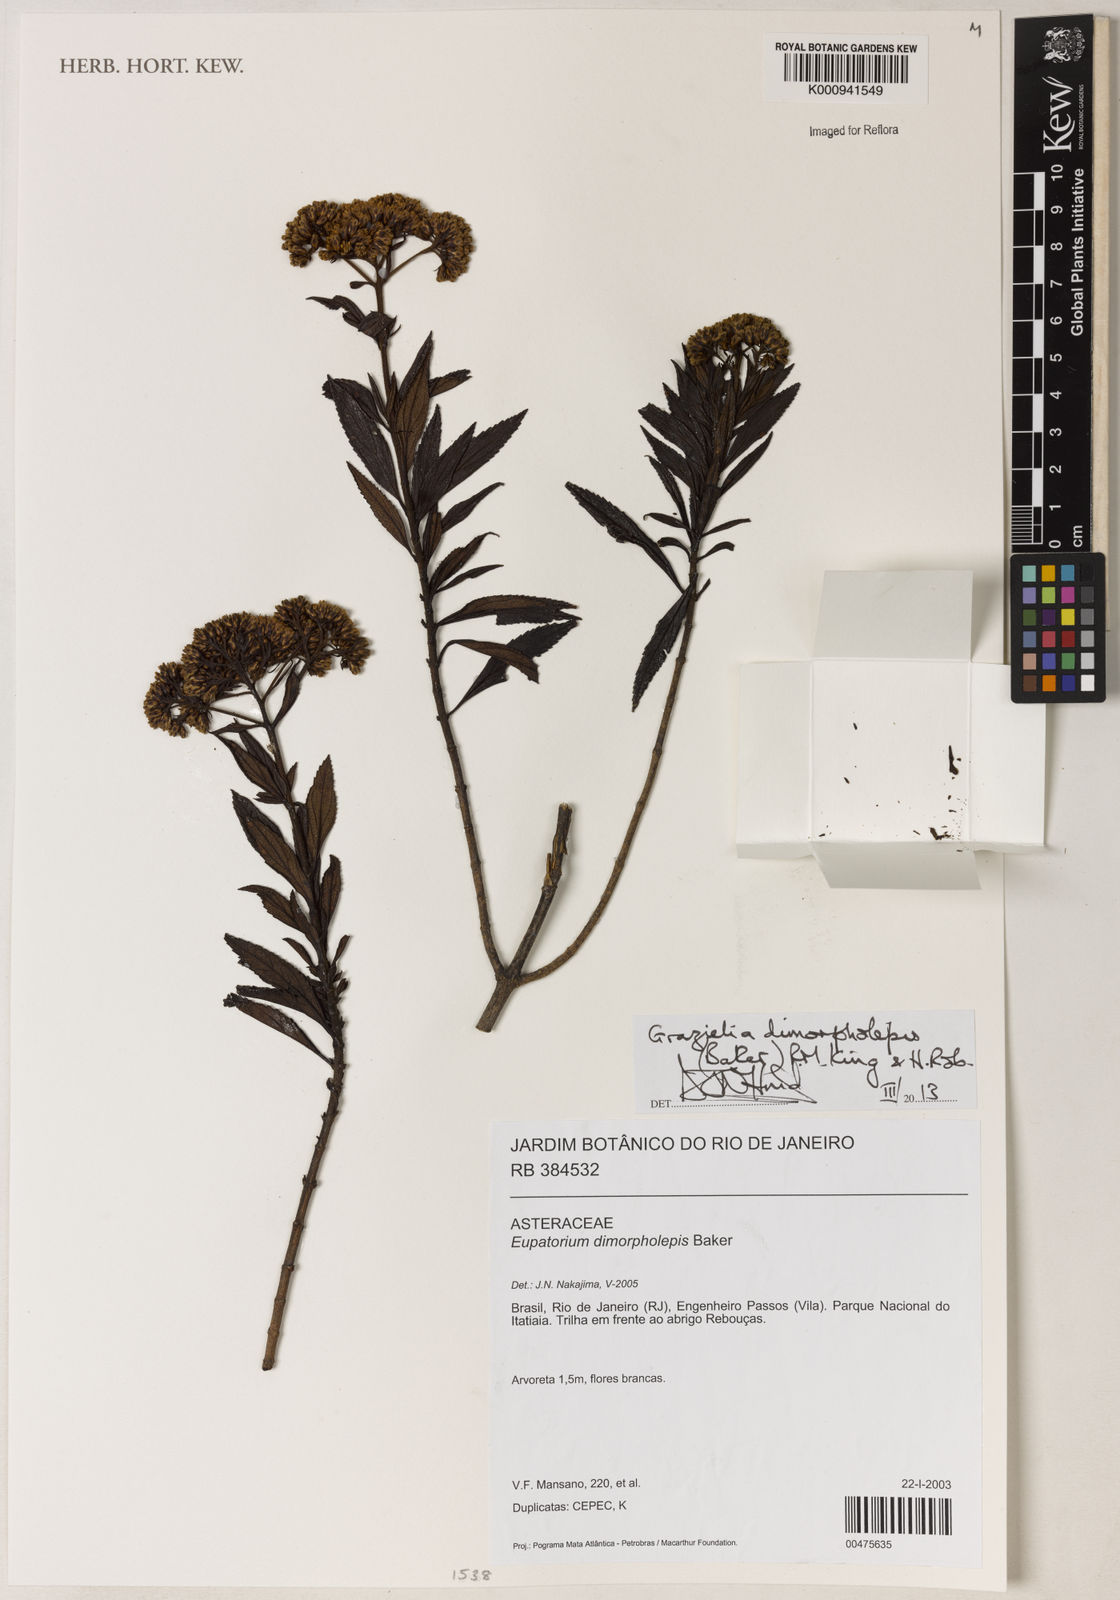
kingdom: Plantae
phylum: Tracheophyta
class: Magnoliopsida
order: Asterales
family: Asteraceae
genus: Grazielia
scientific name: Grazielia dimorpholepis
